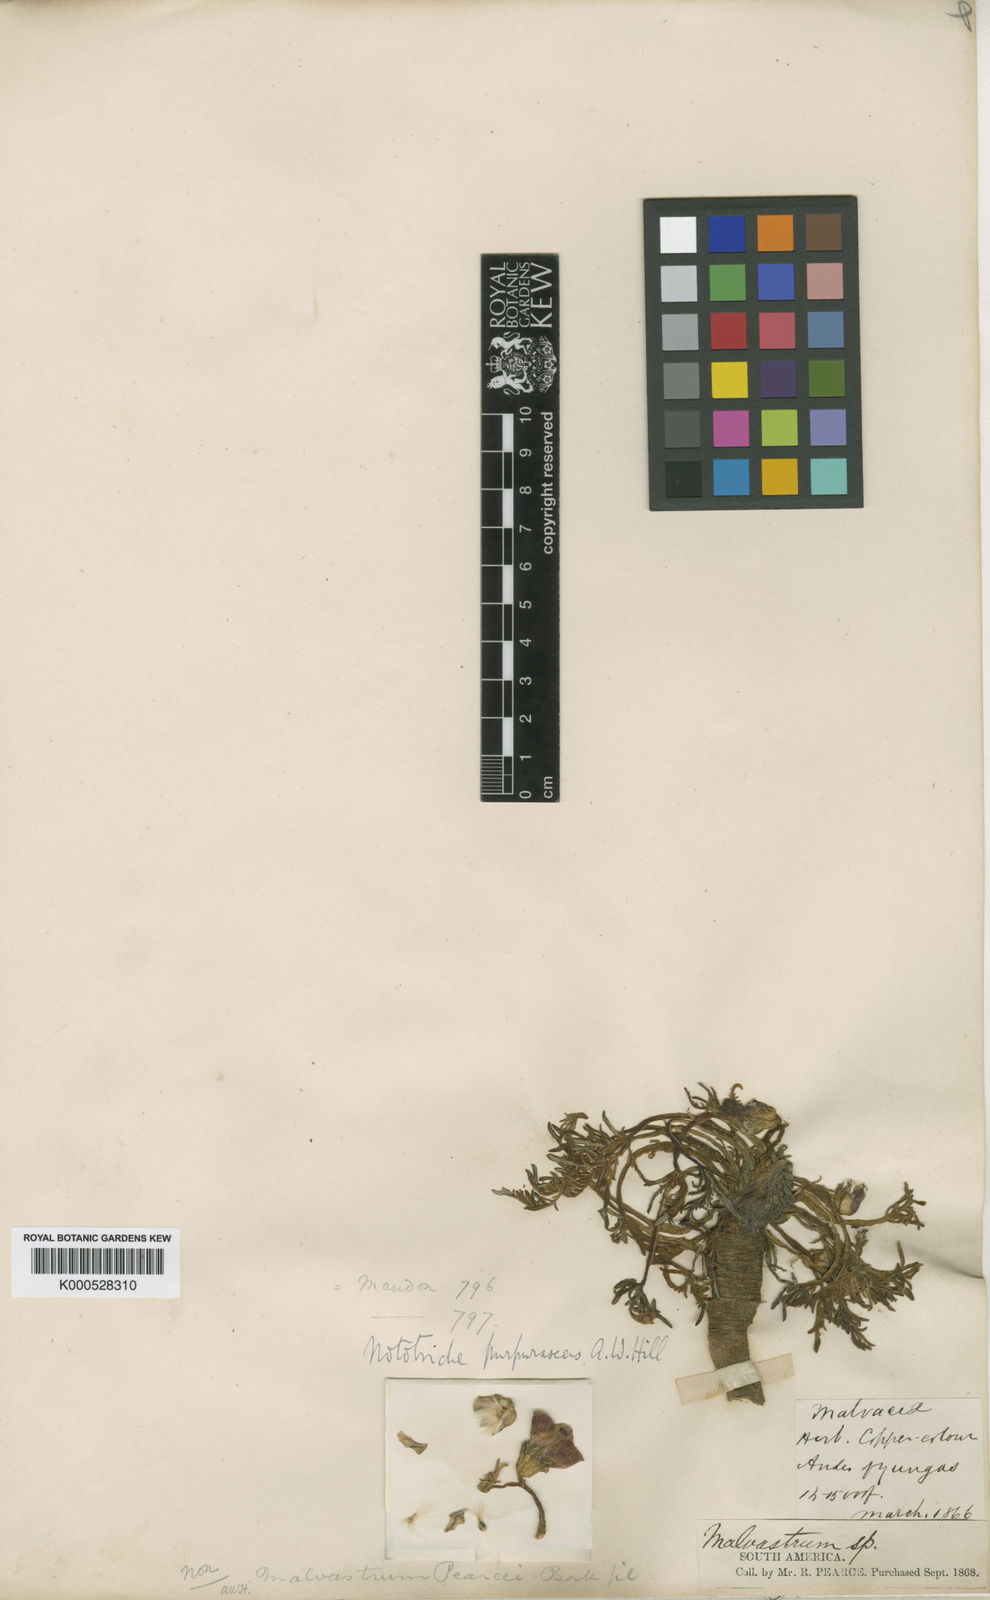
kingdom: Plantae
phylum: Tracheophyta
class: Magnoliopsida
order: Malvales
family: Malvaceae
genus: Nototriche
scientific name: Nototriche purpurascens
